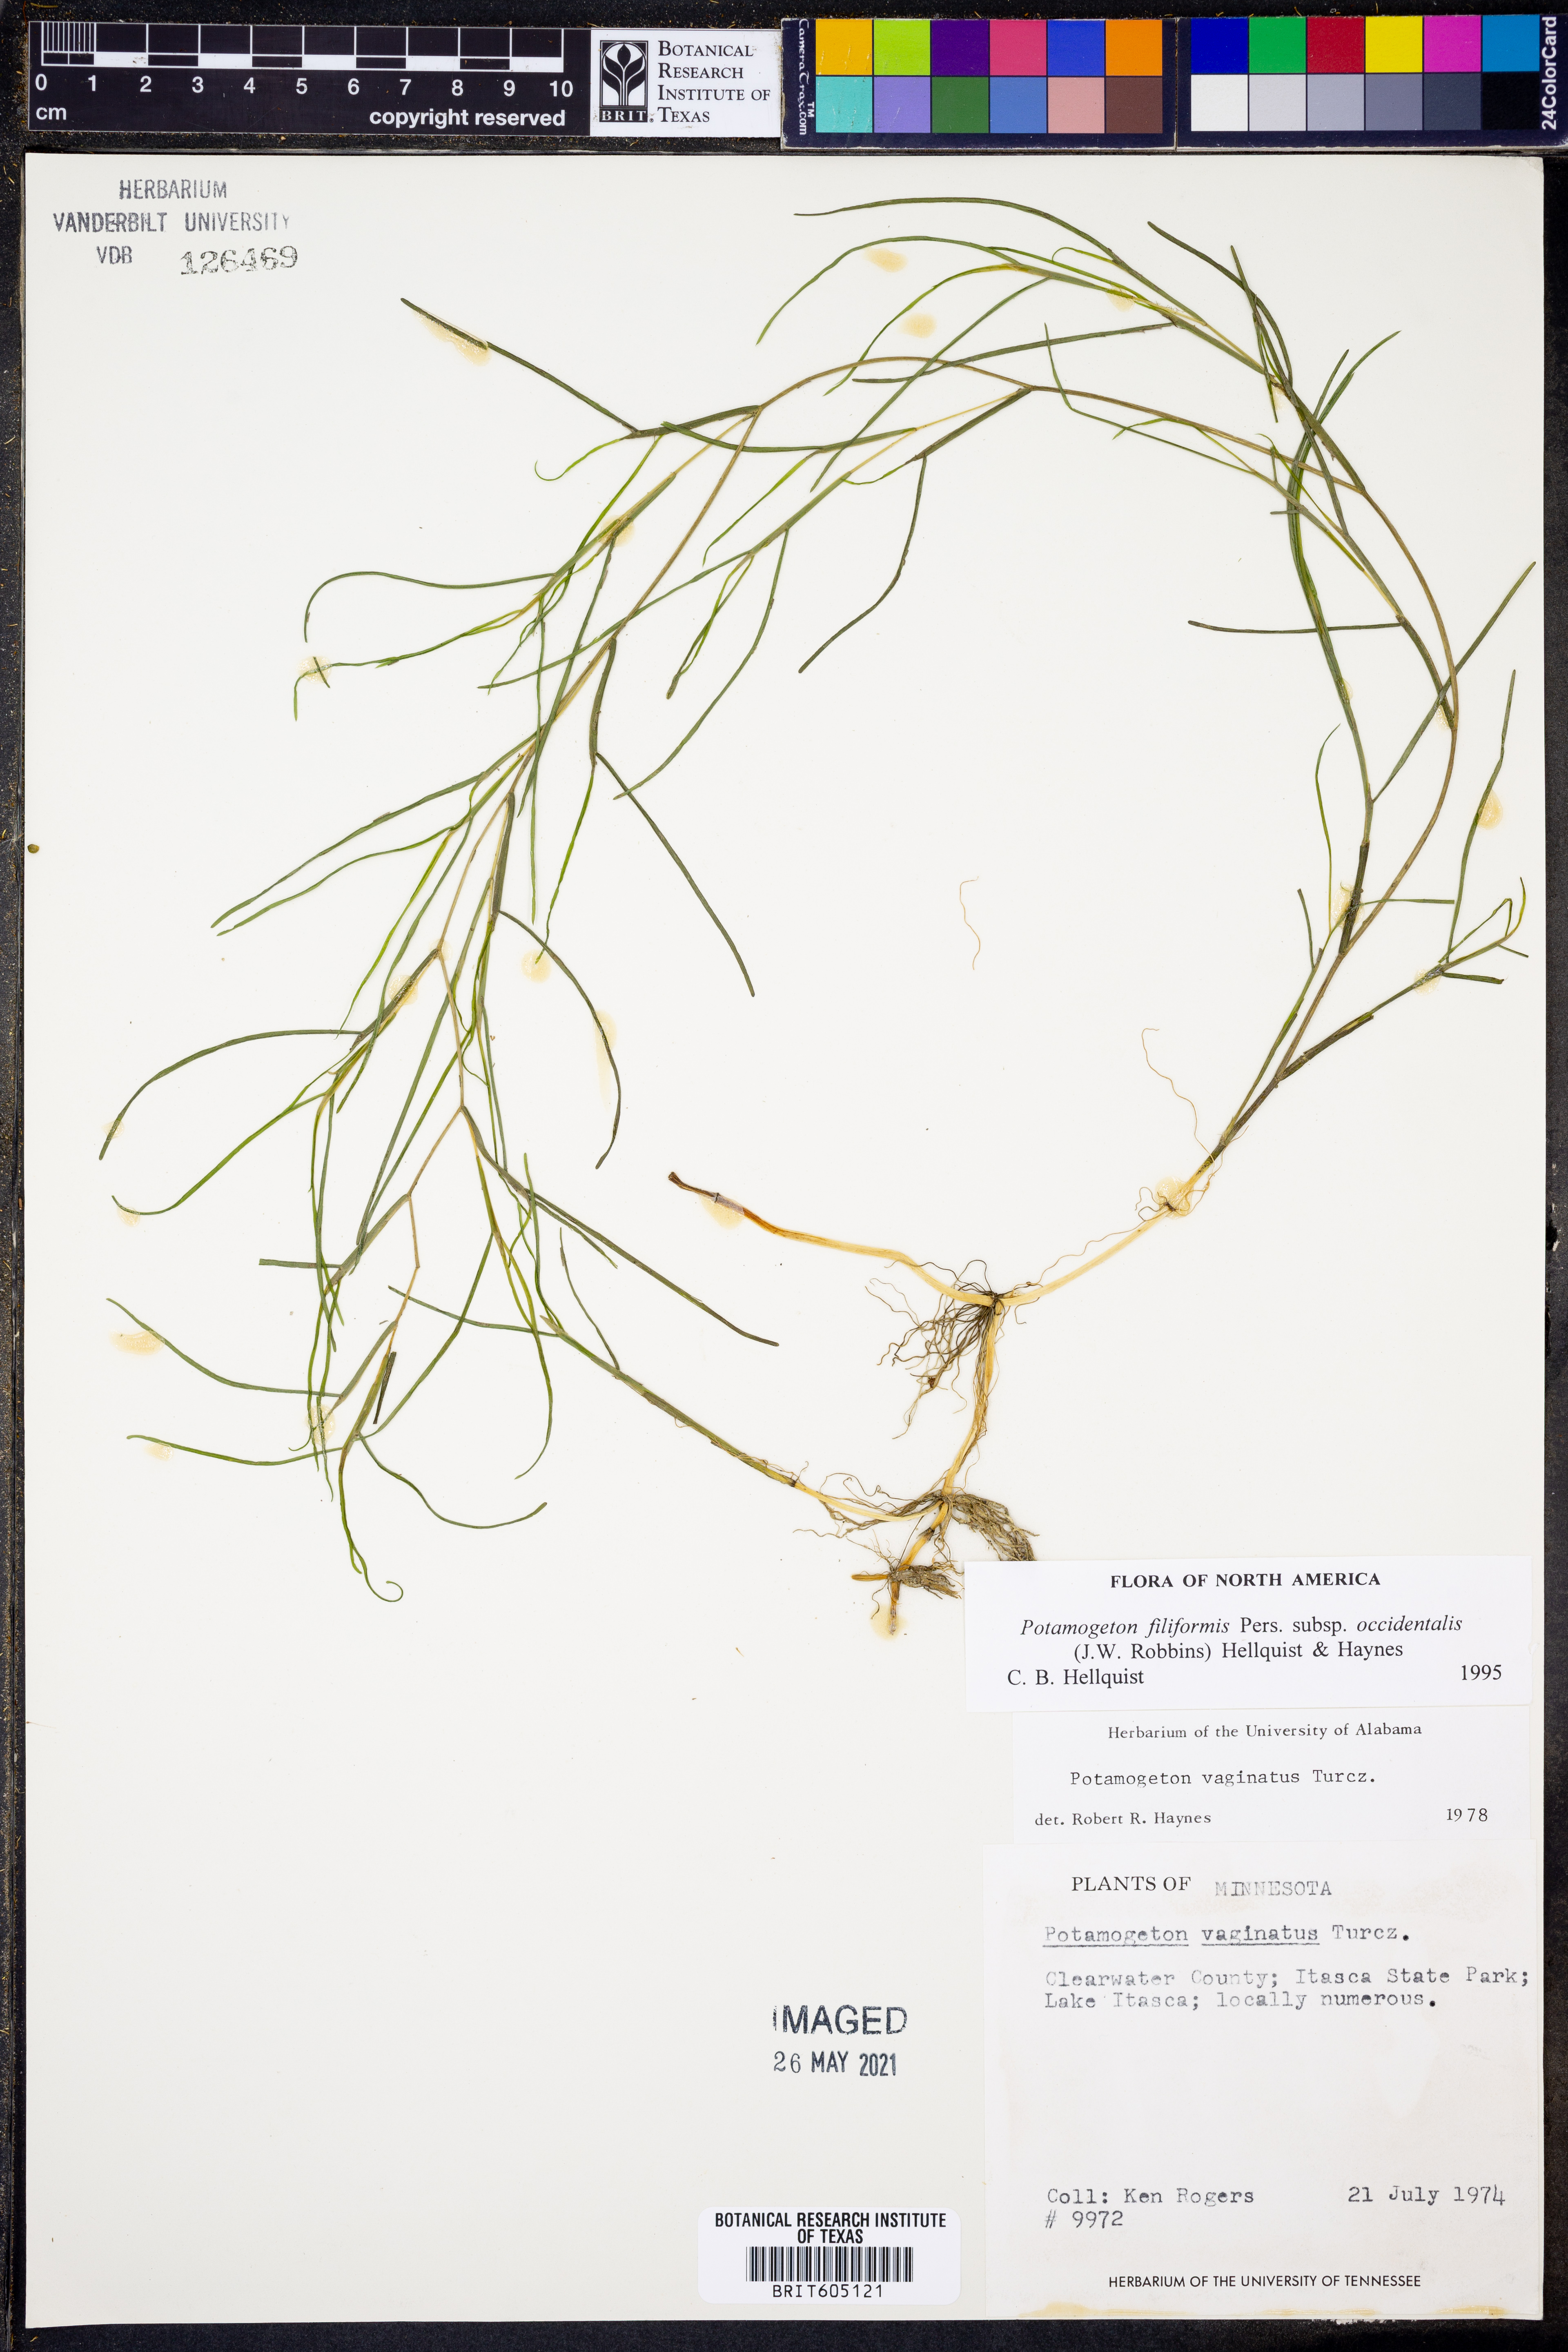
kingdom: Plantae
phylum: Tracheophyta
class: Liliopsida
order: Alismatales
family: Potamogetonaceae
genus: Stuckenia
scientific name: Stuckenia filiformis
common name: Alpine thread-leaved pondweed
